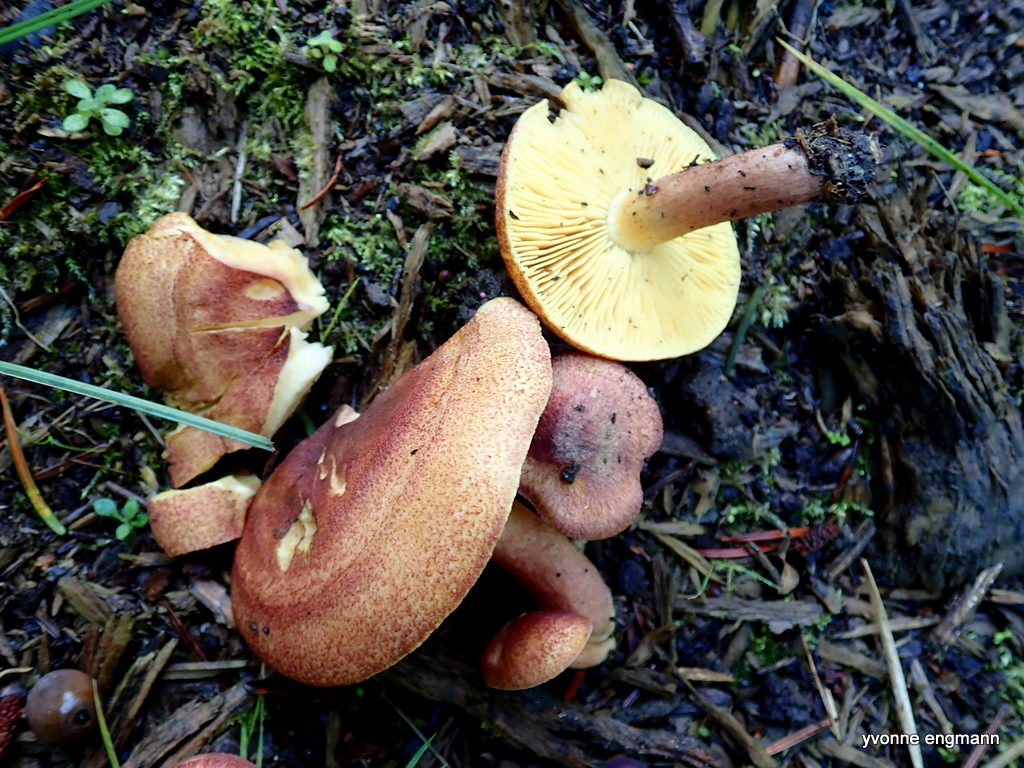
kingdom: Fungi
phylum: Basidiomycota
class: Agaricomycetes
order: Agaricales
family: Tricholomataceae
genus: Tricholomopsis
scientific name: Tricholomopsis rutilans
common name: purpur-væbnerhat
